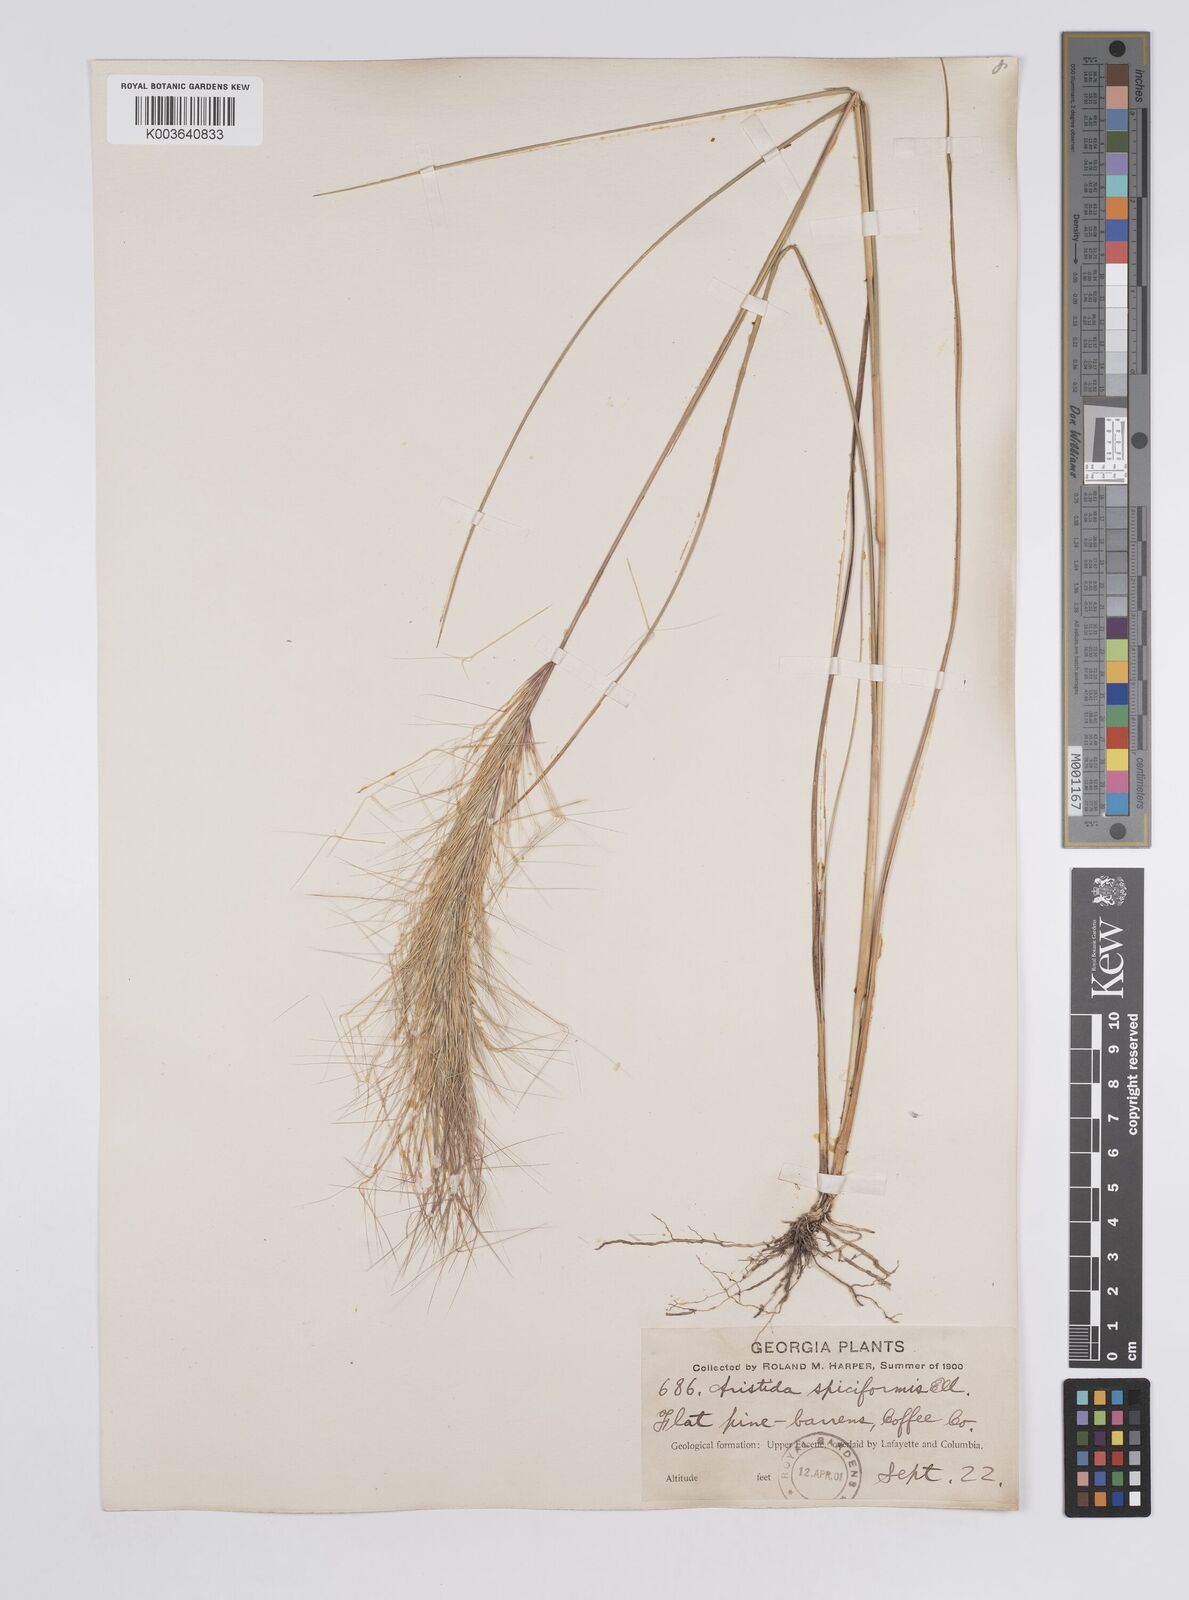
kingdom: Plantae
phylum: Tracheophyta
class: Liliopsida
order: Poales
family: Poaceae
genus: Aristida
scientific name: Aristida spiciformis
